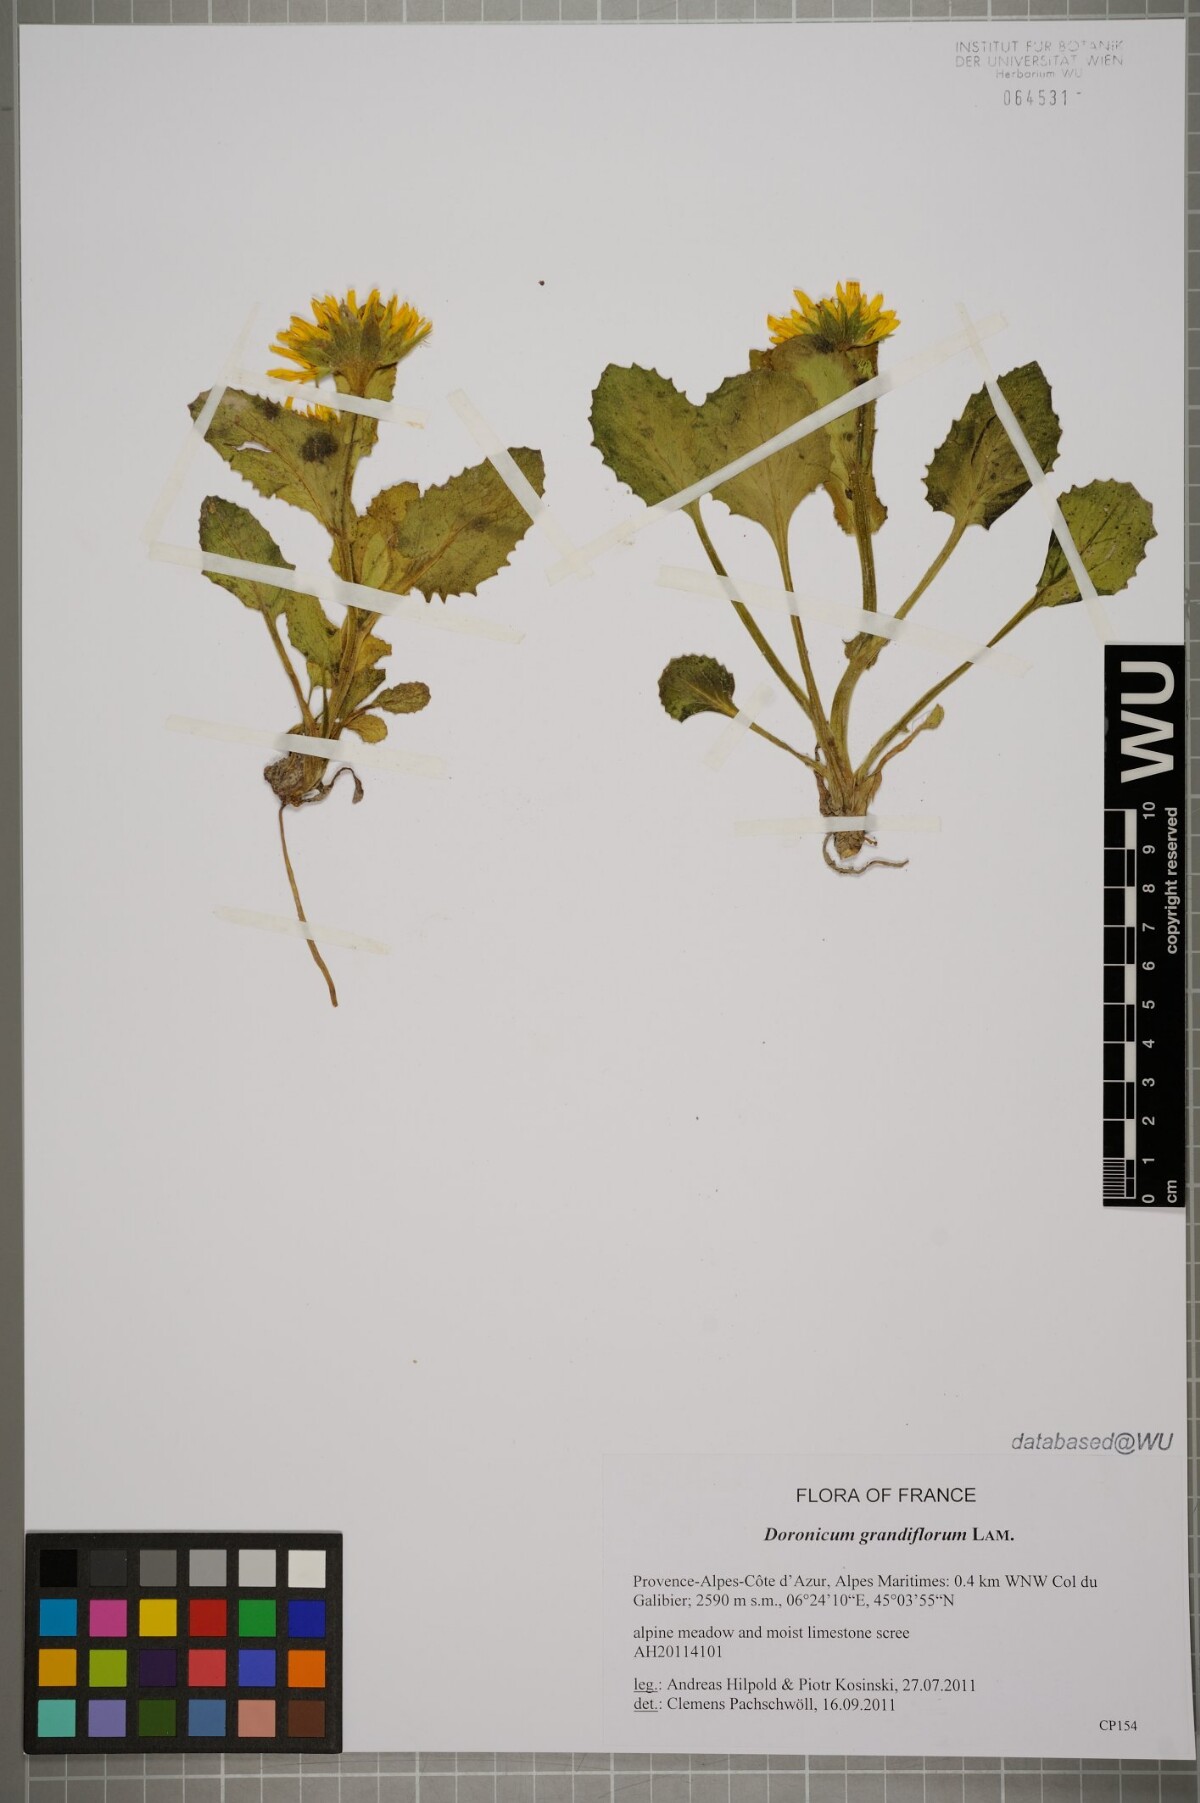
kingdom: Plantae
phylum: Tracheophyta
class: Magnoliopsida
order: Asterales
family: Asteraceae
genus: Doronicum
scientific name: Doronicum grandiflorum
